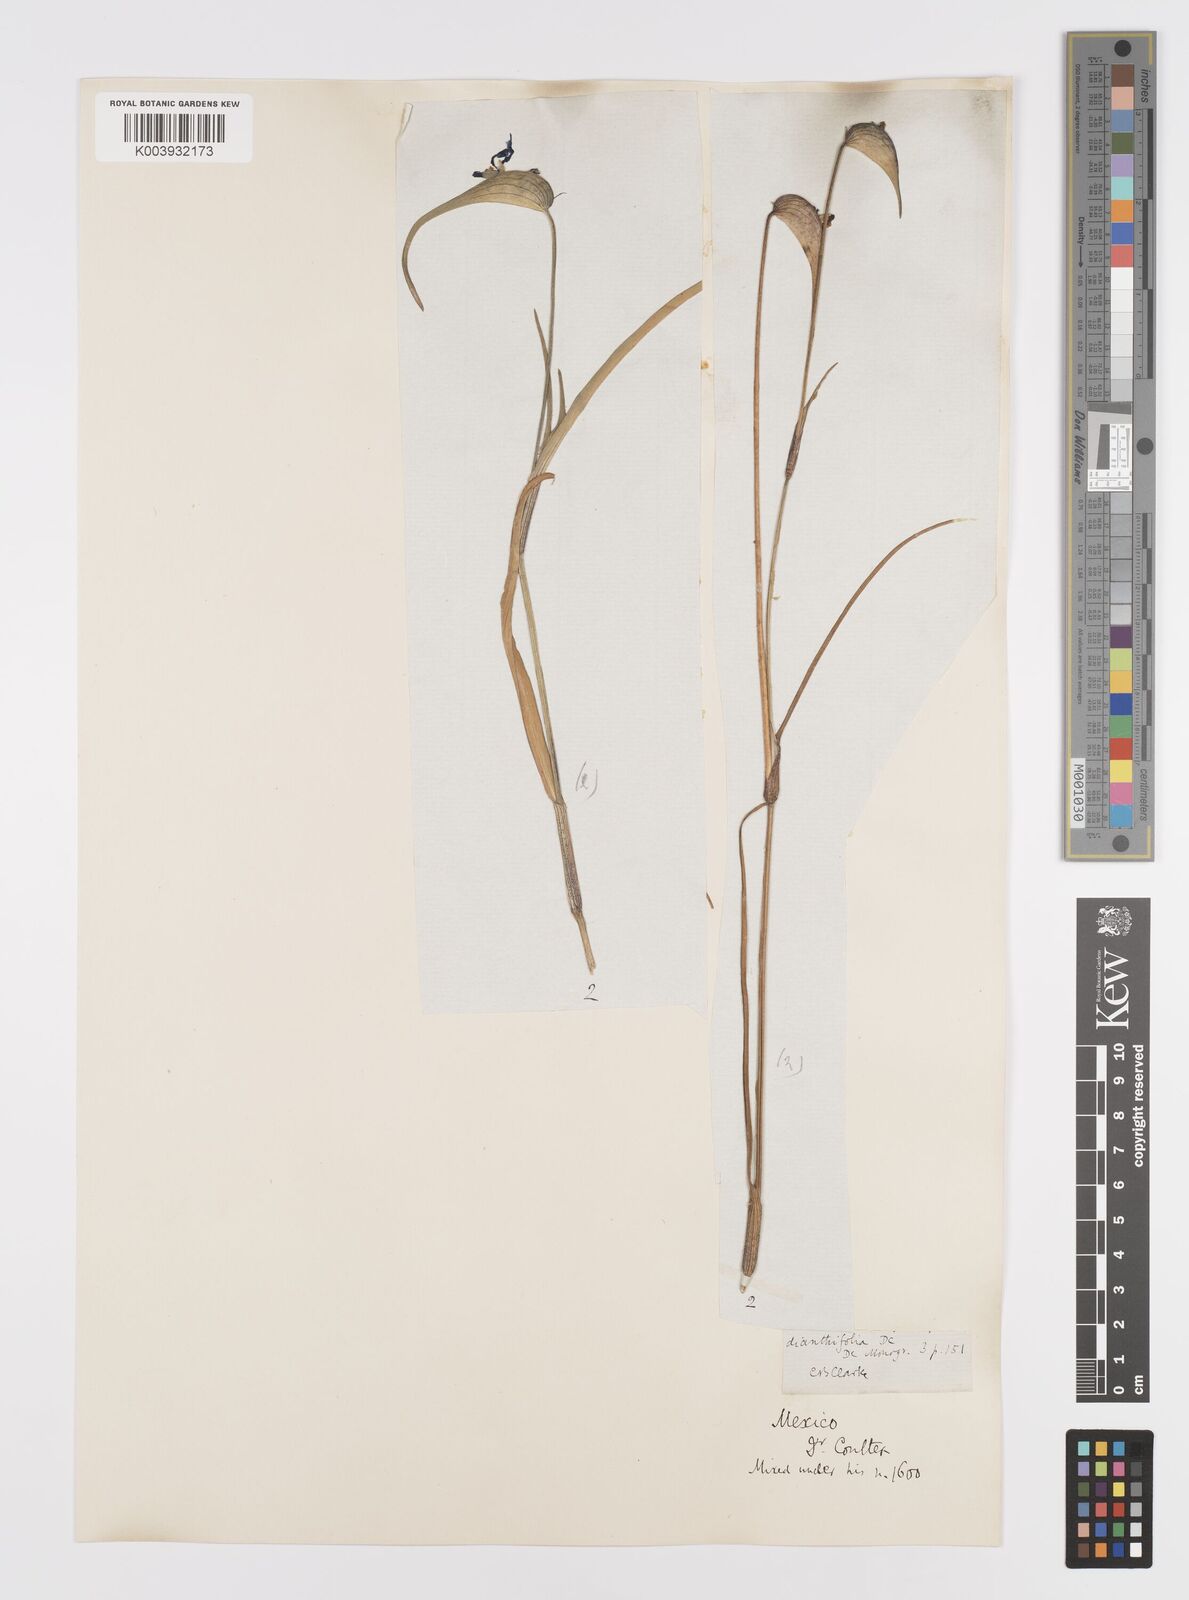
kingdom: Plantae
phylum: Tracheophyta
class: Liliopsida
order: Commelinales
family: Commelinaceae
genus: Commelina
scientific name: Commelina dianthifolia
